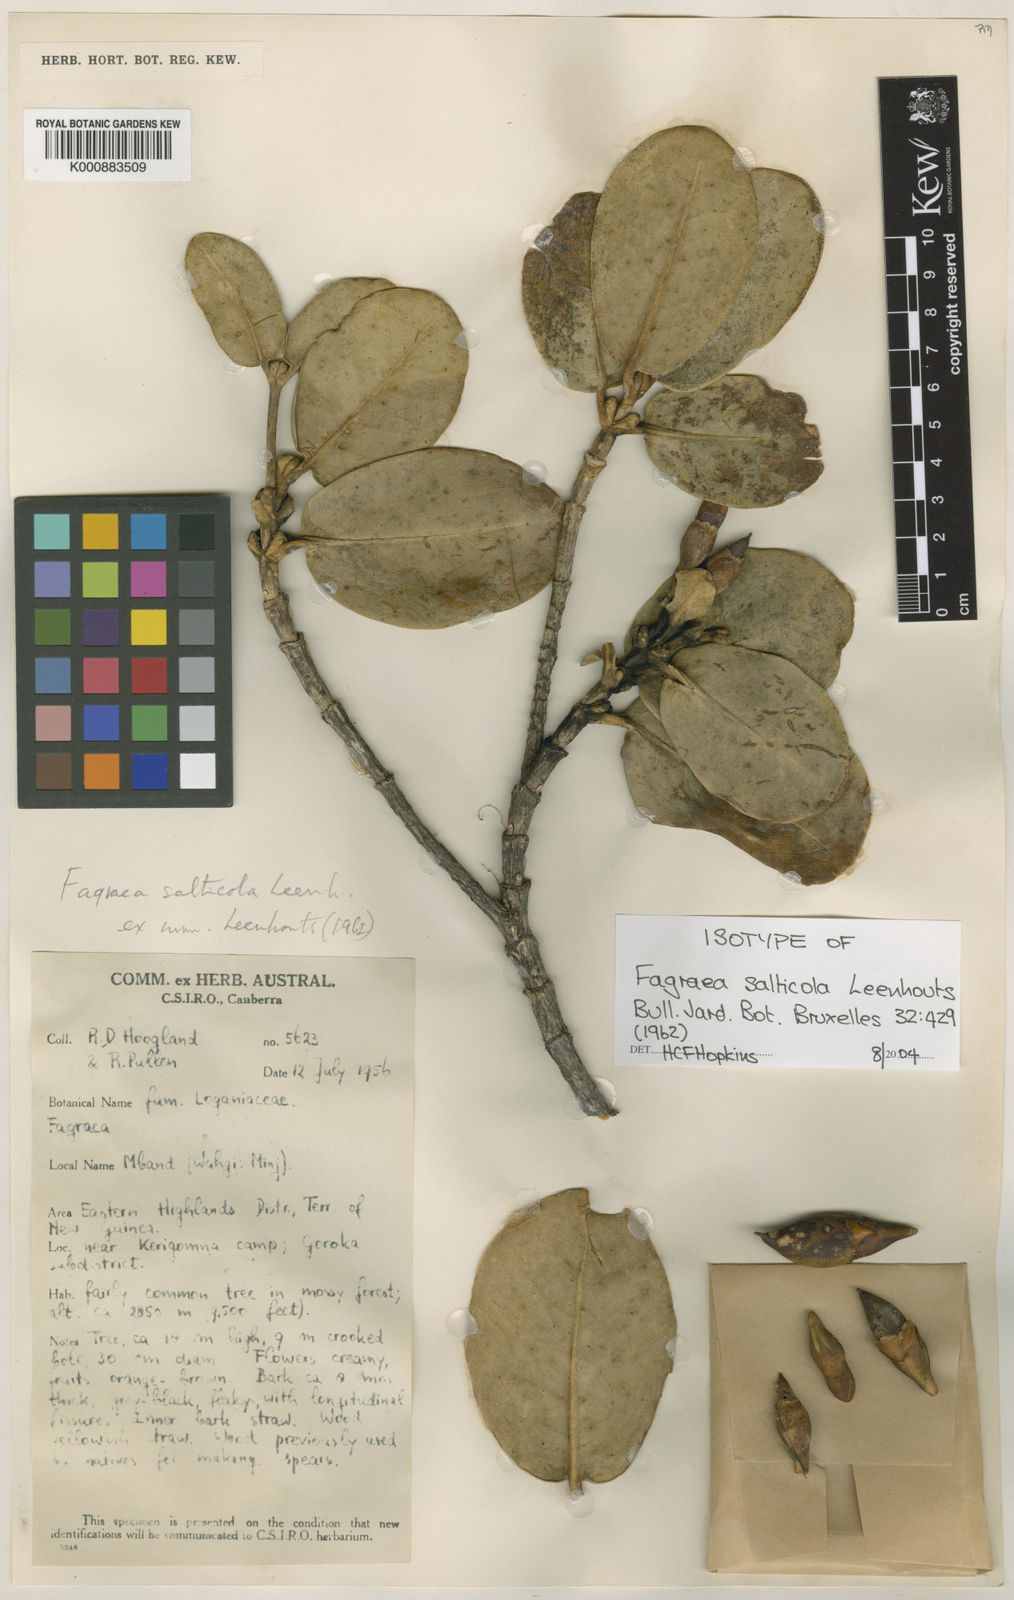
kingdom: Plantae
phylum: Tracheophyta
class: Magnoliopsida
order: Gentianales
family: Gentianaceae
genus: Fagraea
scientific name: Fagraea salticola
